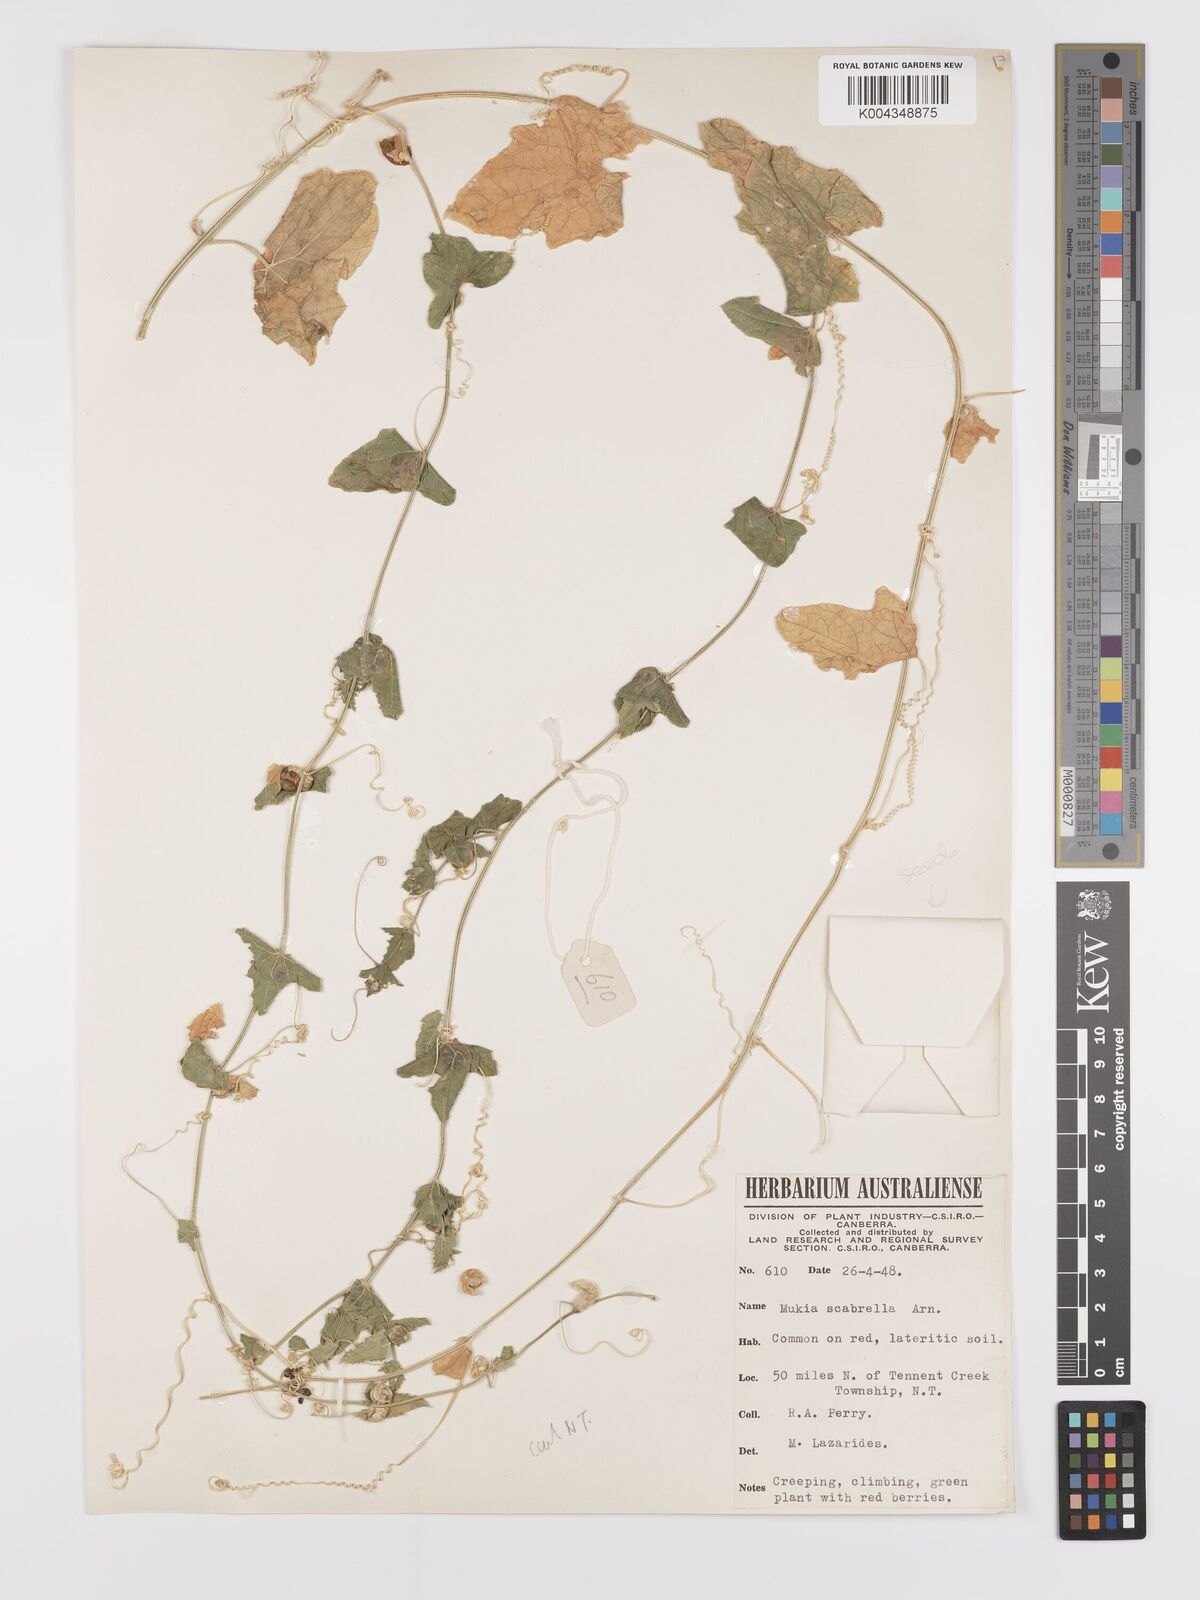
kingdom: Animalia
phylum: Arthropoda
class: Insecta
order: Lepidoptera
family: Crambidae
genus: Mukia
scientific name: Mukia
